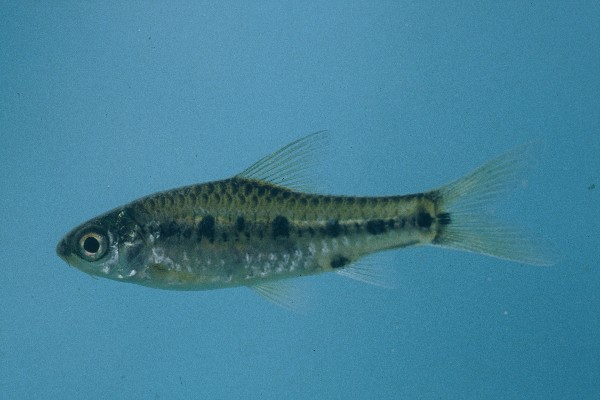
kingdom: Animalia
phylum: Chordata
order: Cypriniformes
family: Cyprinidae
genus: Enteromius
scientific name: Enteromius lineomaculatus
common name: Line-spotted barb
